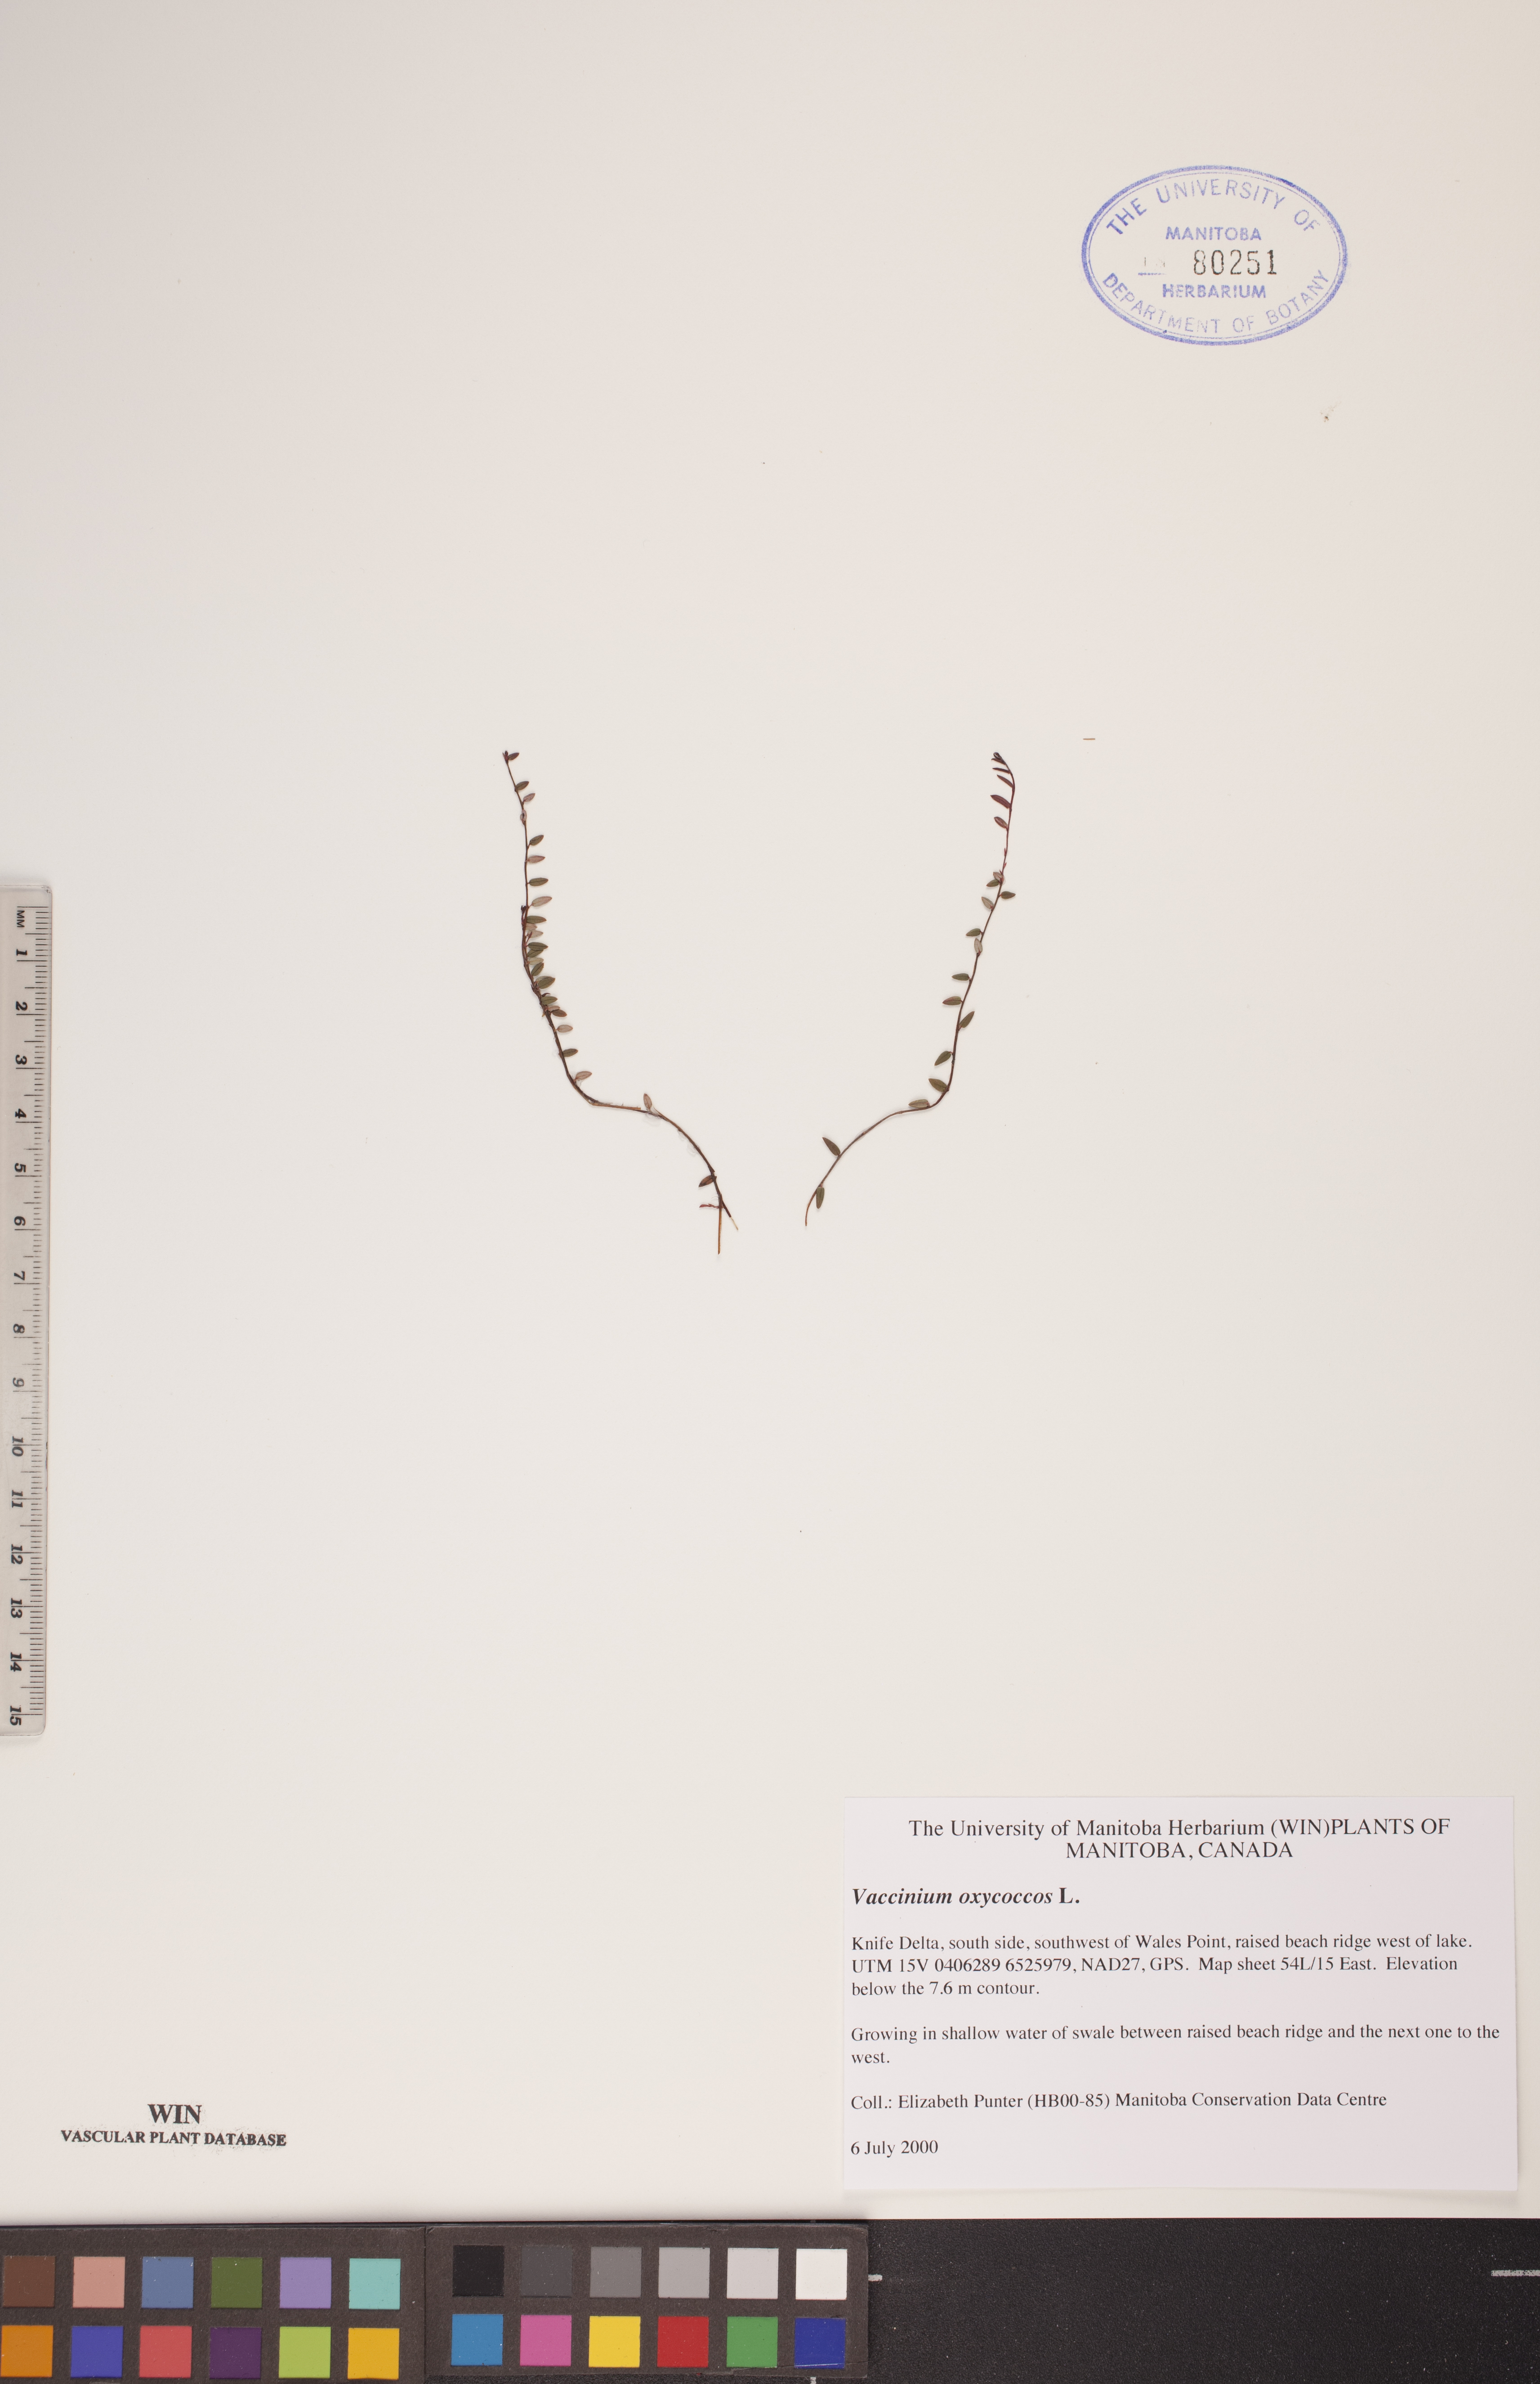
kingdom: Plantae
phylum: Tracheophyta
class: Magnoliopsida
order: Ericales
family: Ericaceae
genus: Vaccinium
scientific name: Vaccinium oxycoccos
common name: Cranberry
